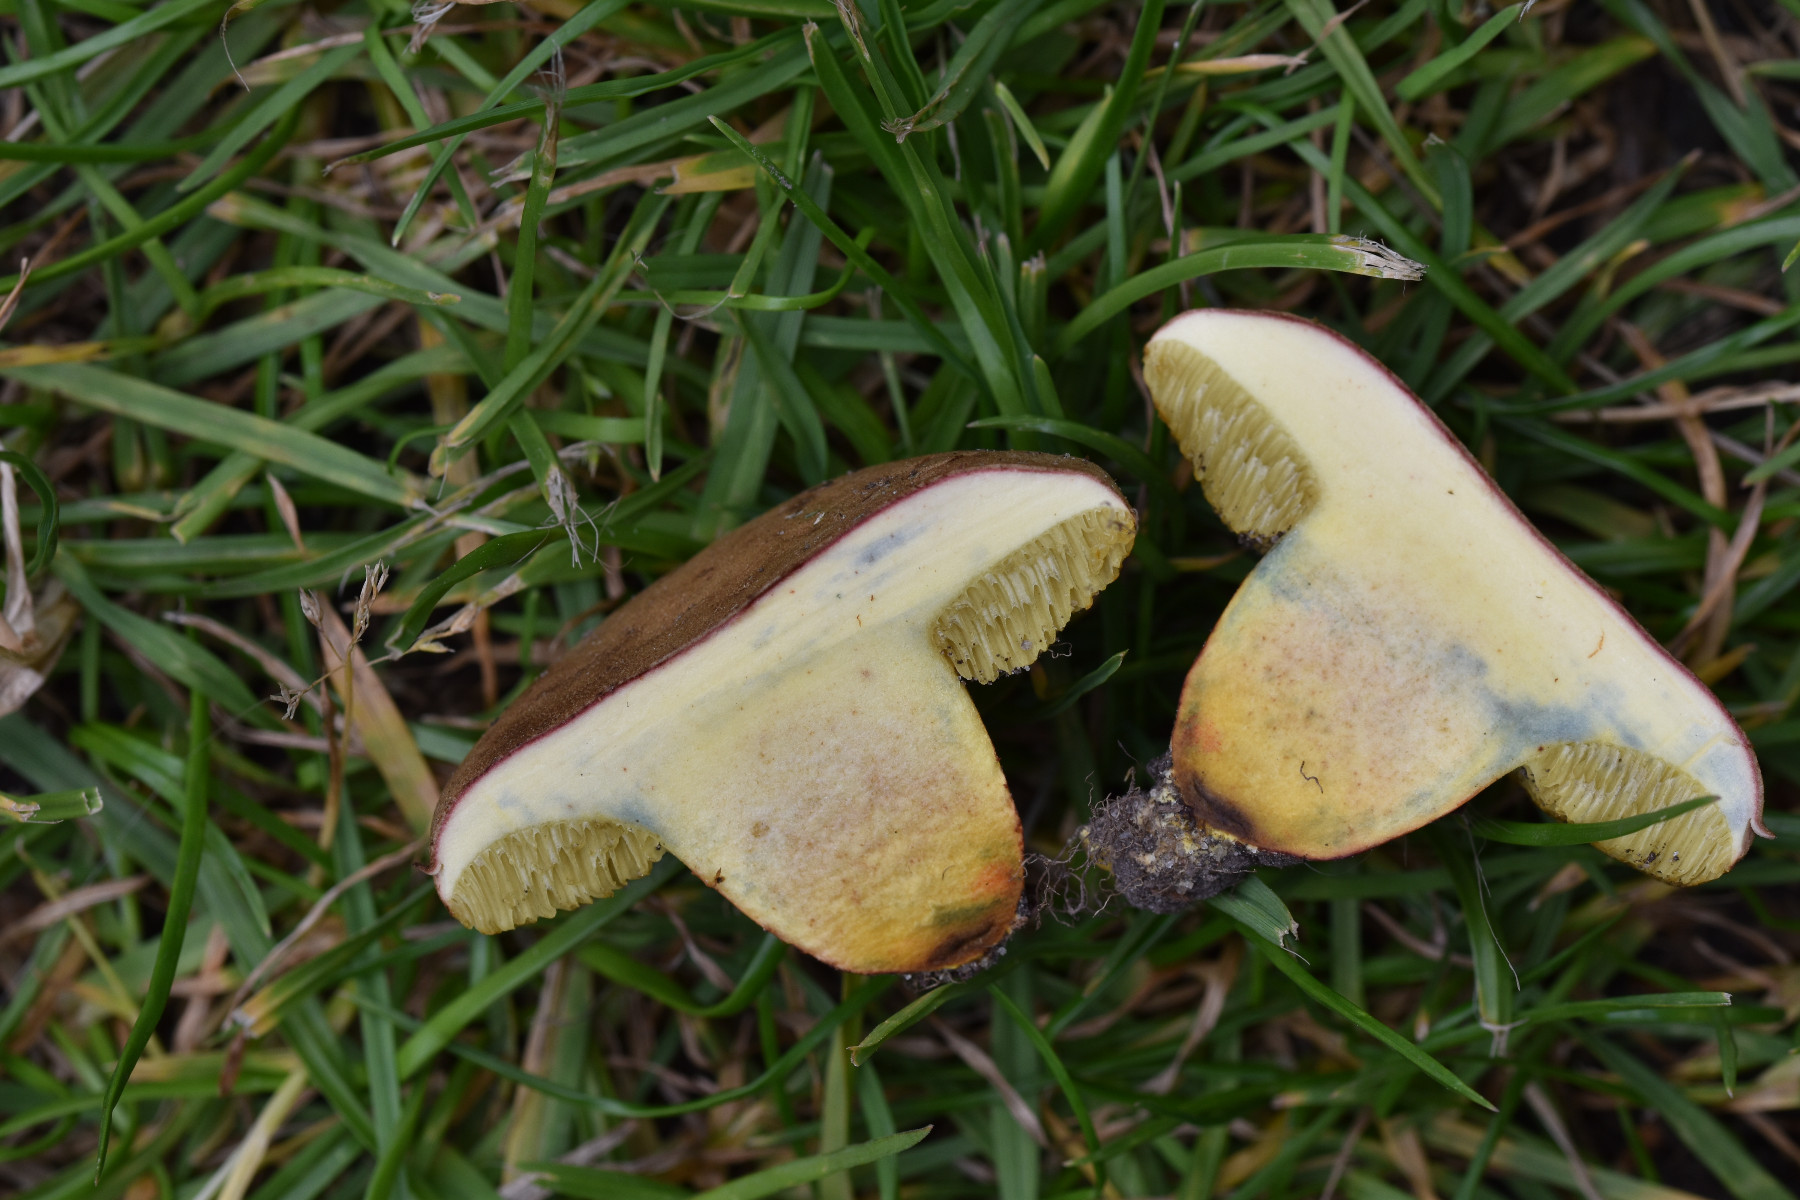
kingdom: Fungi
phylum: Basidiomycota
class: Agaricomycetes
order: Boletales
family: Boletaceae
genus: Hortiboletus
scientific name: Hortiboletus engelii
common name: fersken-rørhat
